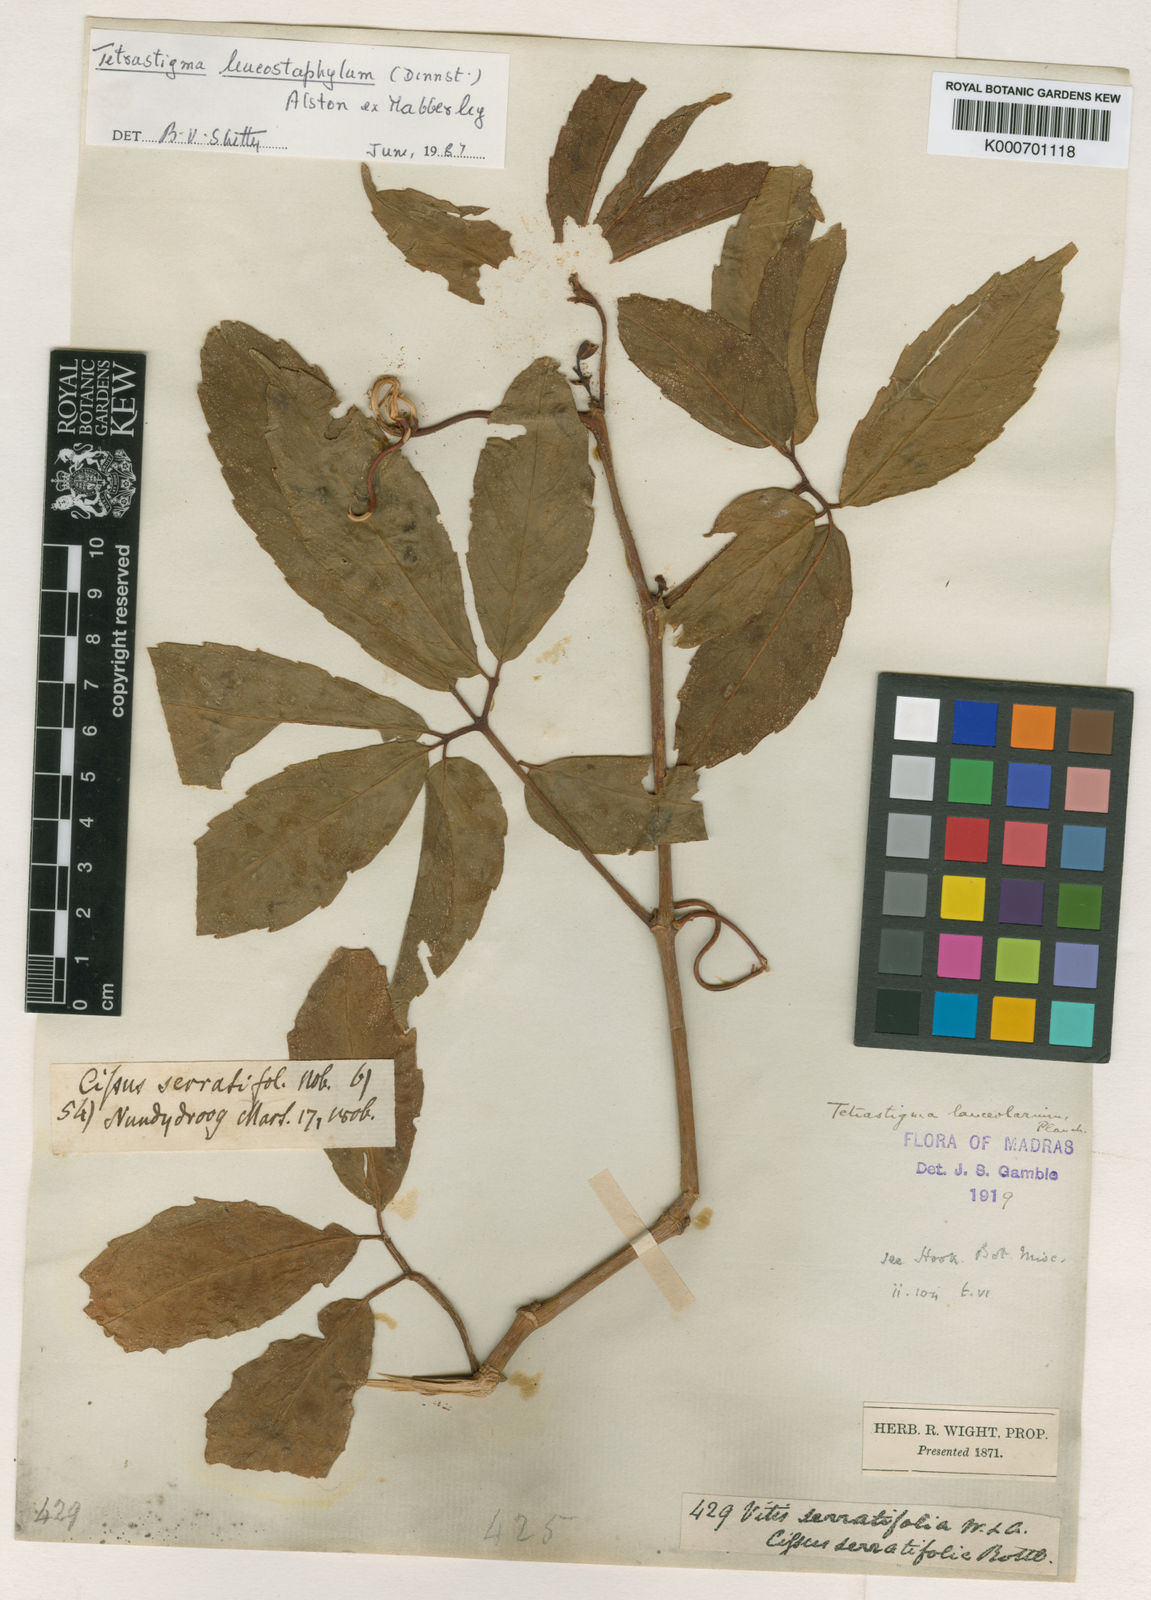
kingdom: Plantae
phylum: Tracheophyta
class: Magnoliopsida
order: Vitales
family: Vitaceae
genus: Tetrastigma
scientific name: Tetrastigma
